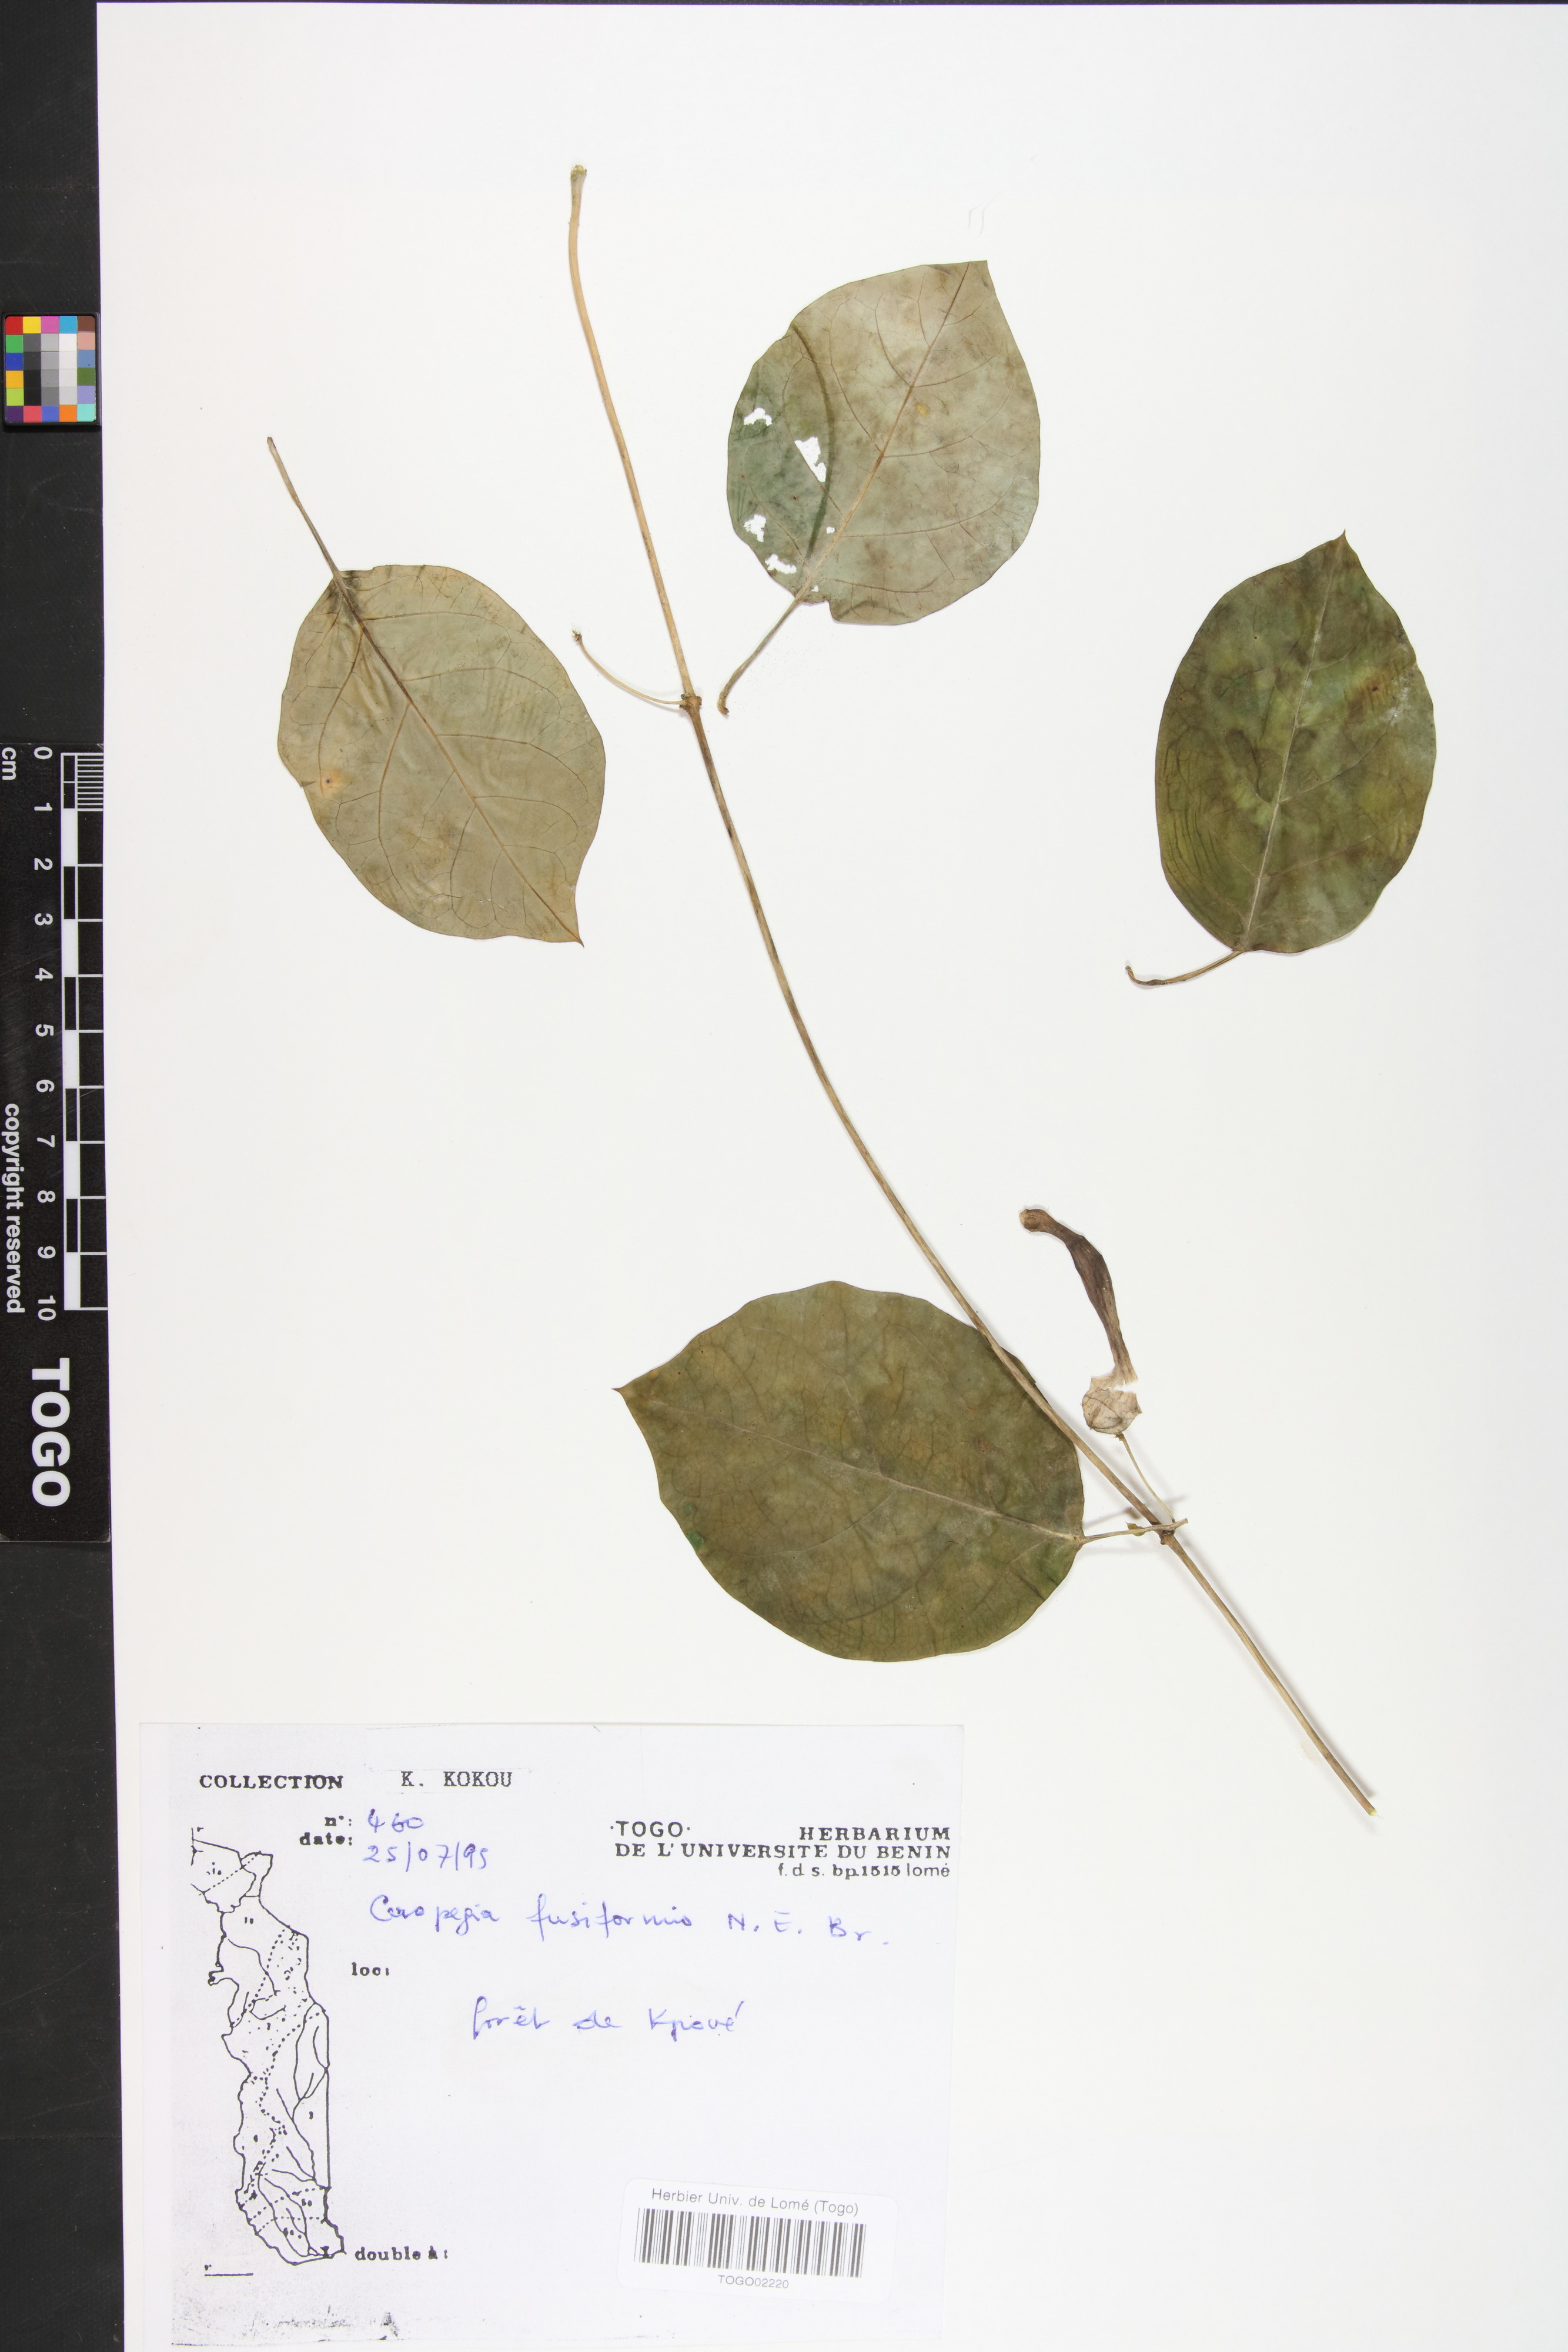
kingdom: Plantae
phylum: Tracheophyta
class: Magnoliopsida
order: Gentianales
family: Apocynaceae
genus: Ceropegia
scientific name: Ceropegia fusiformis
